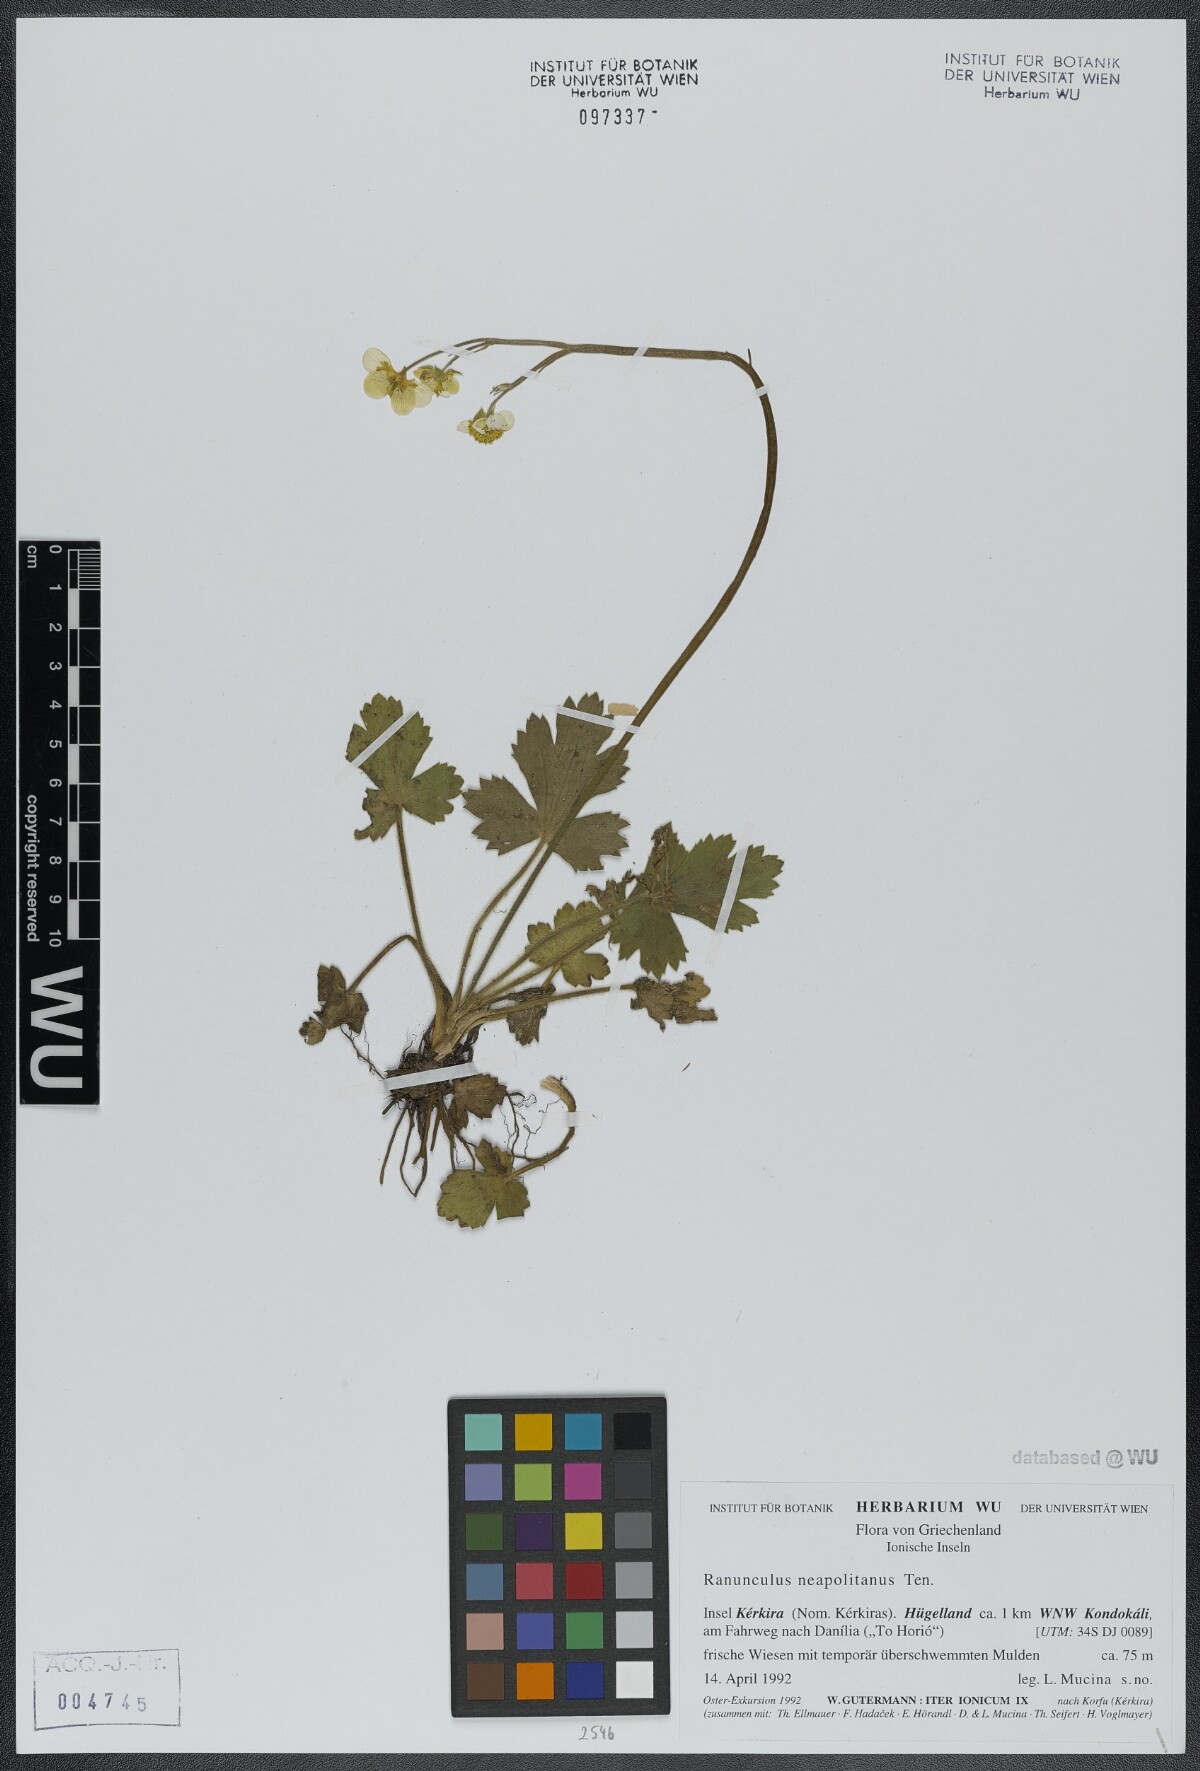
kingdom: Plantae
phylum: Tracheophyta
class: Magnoliopsida
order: Ranunculales
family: Ranunculaceae
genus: Ranunculus
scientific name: Ranunculus neapolitanus
